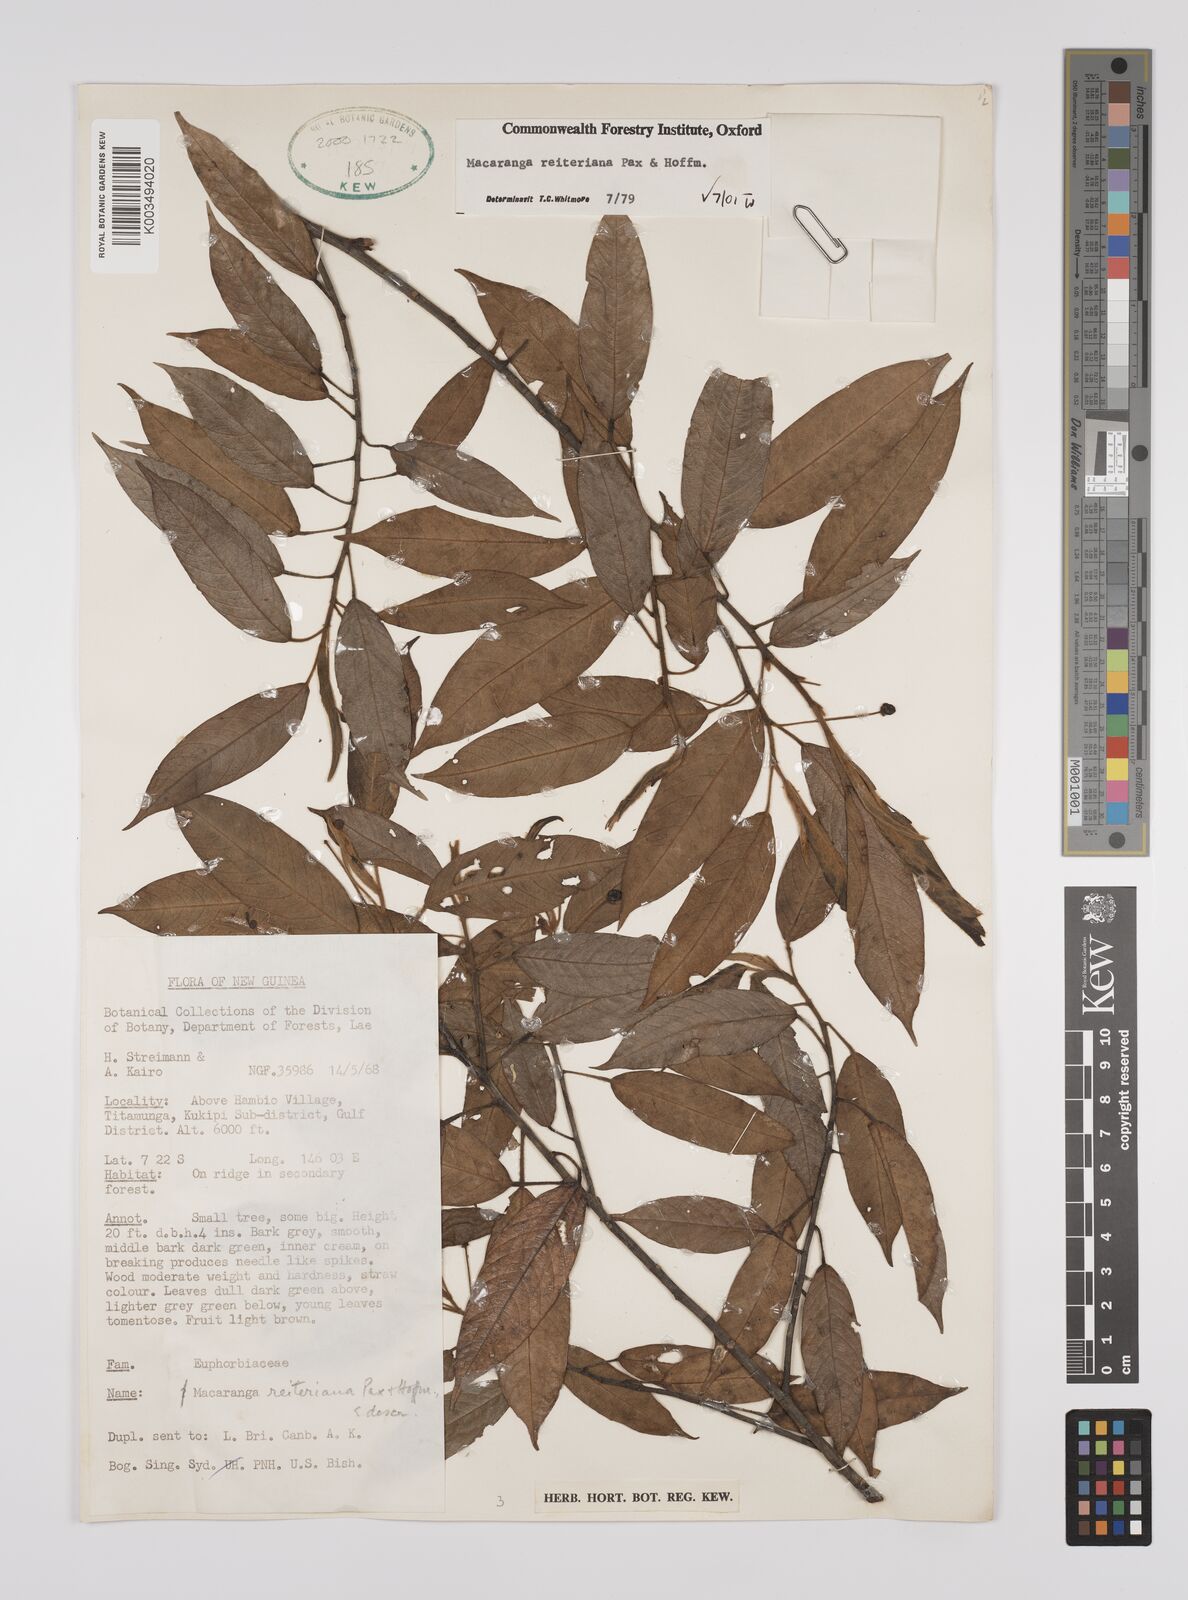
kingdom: Plantae
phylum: Tracheophyta
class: Magnoliopsida
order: Malpighiales
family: Euphorbiaceae
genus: Macaranga
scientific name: Macaranga reiteriana
